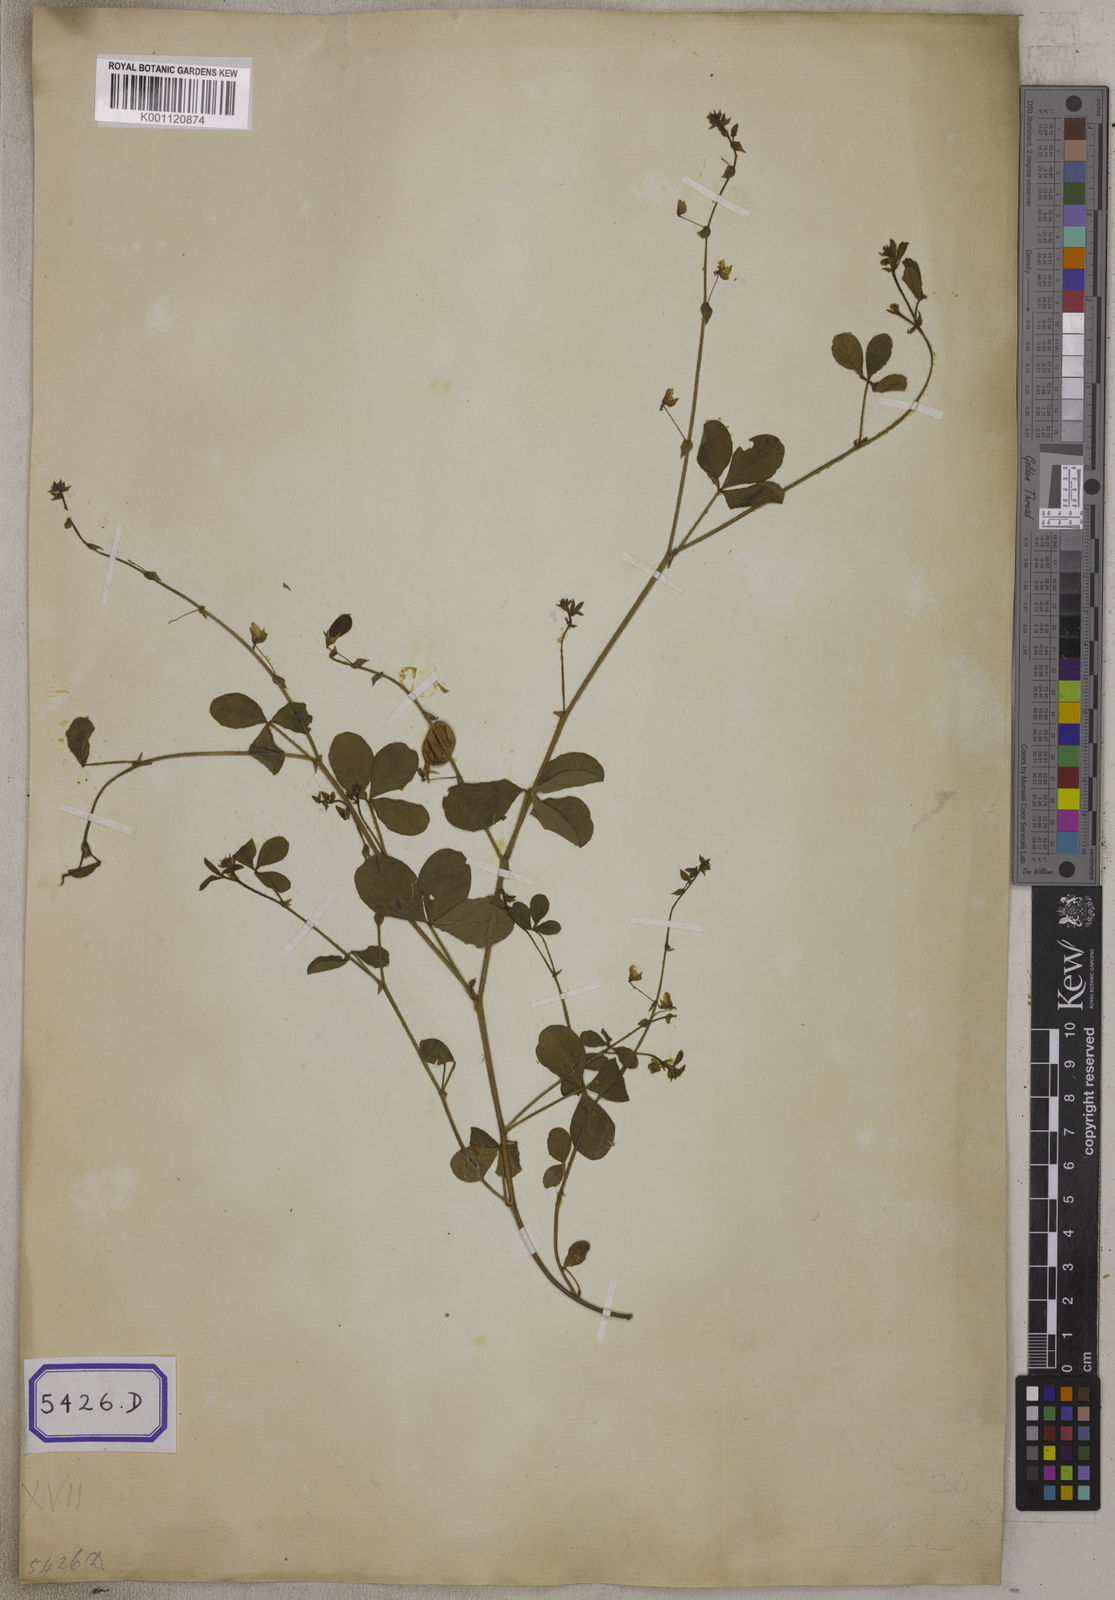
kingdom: Plantae
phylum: Tracheophyta
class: Magnoliopsida
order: Fabales
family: Fabaceae
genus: Crotalaria
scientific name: Crotalaria orixensis
